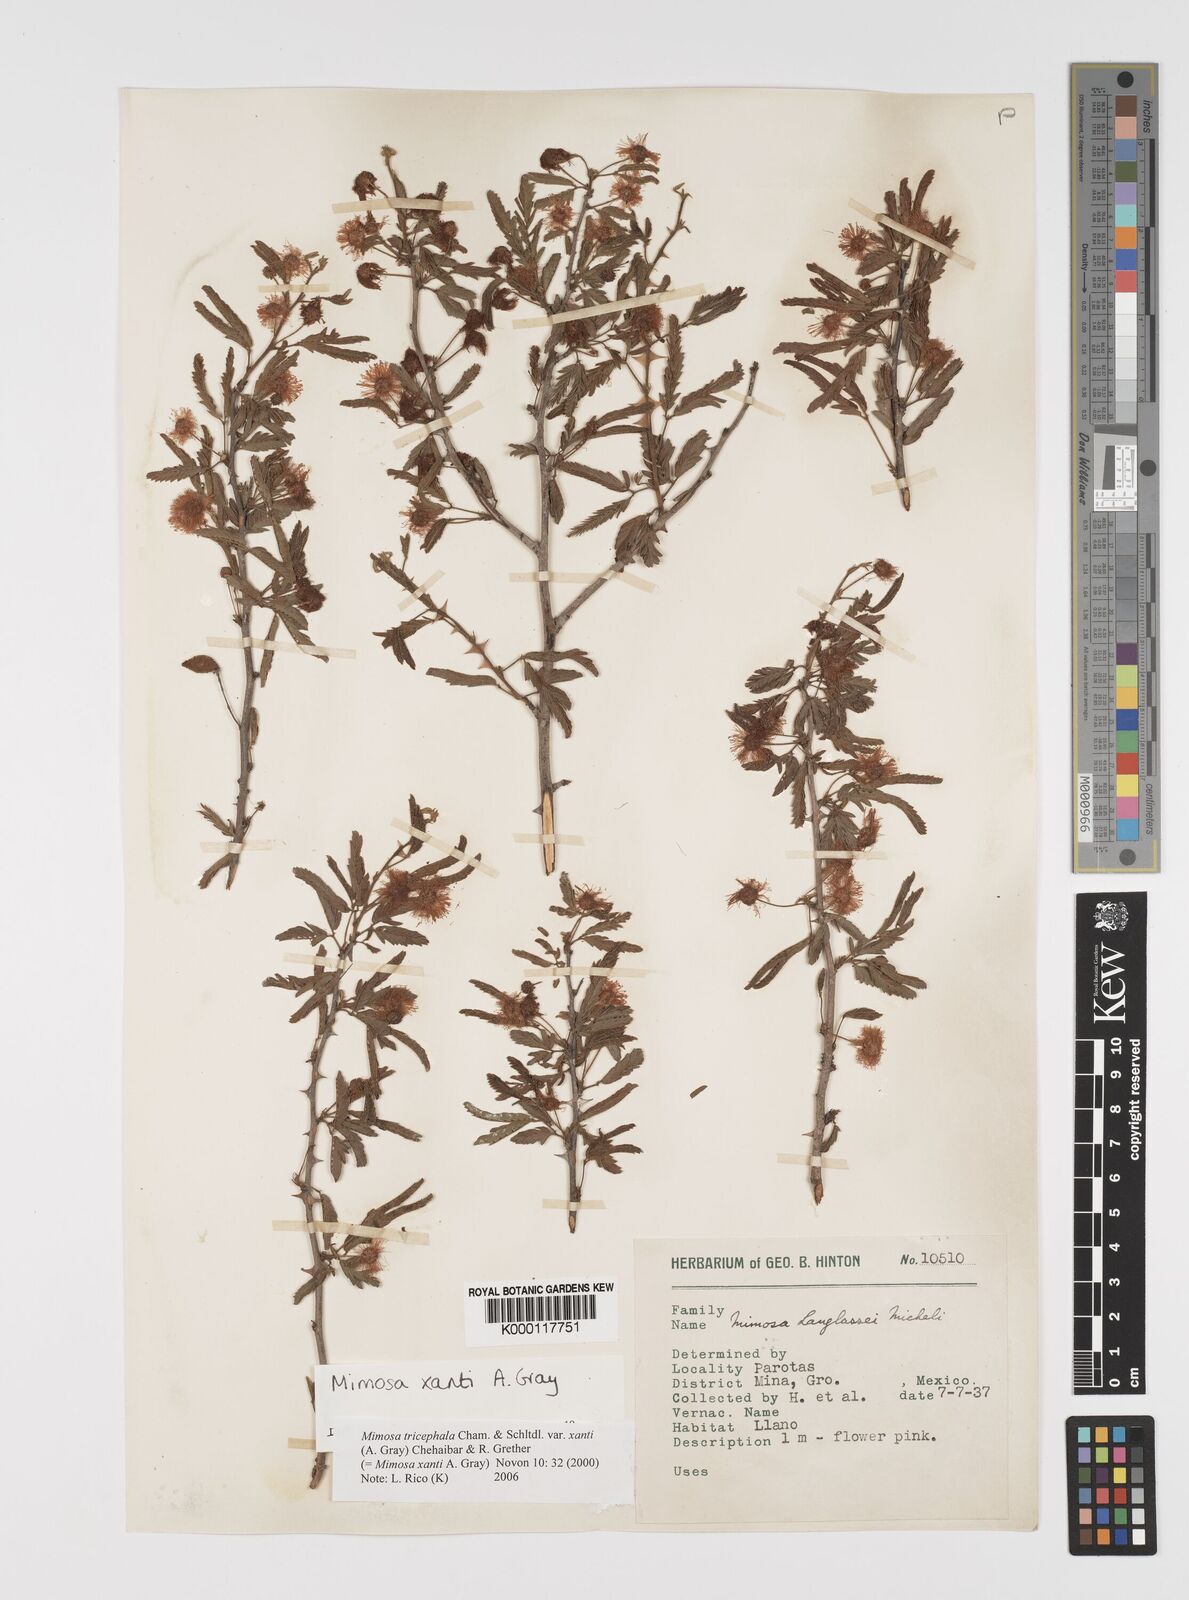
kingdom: Plantae
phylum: Tracheophyta
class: Magnoliopsida
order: Fabales
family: Fabaceae
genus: Mimosa
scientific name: Mimosa tricephala
